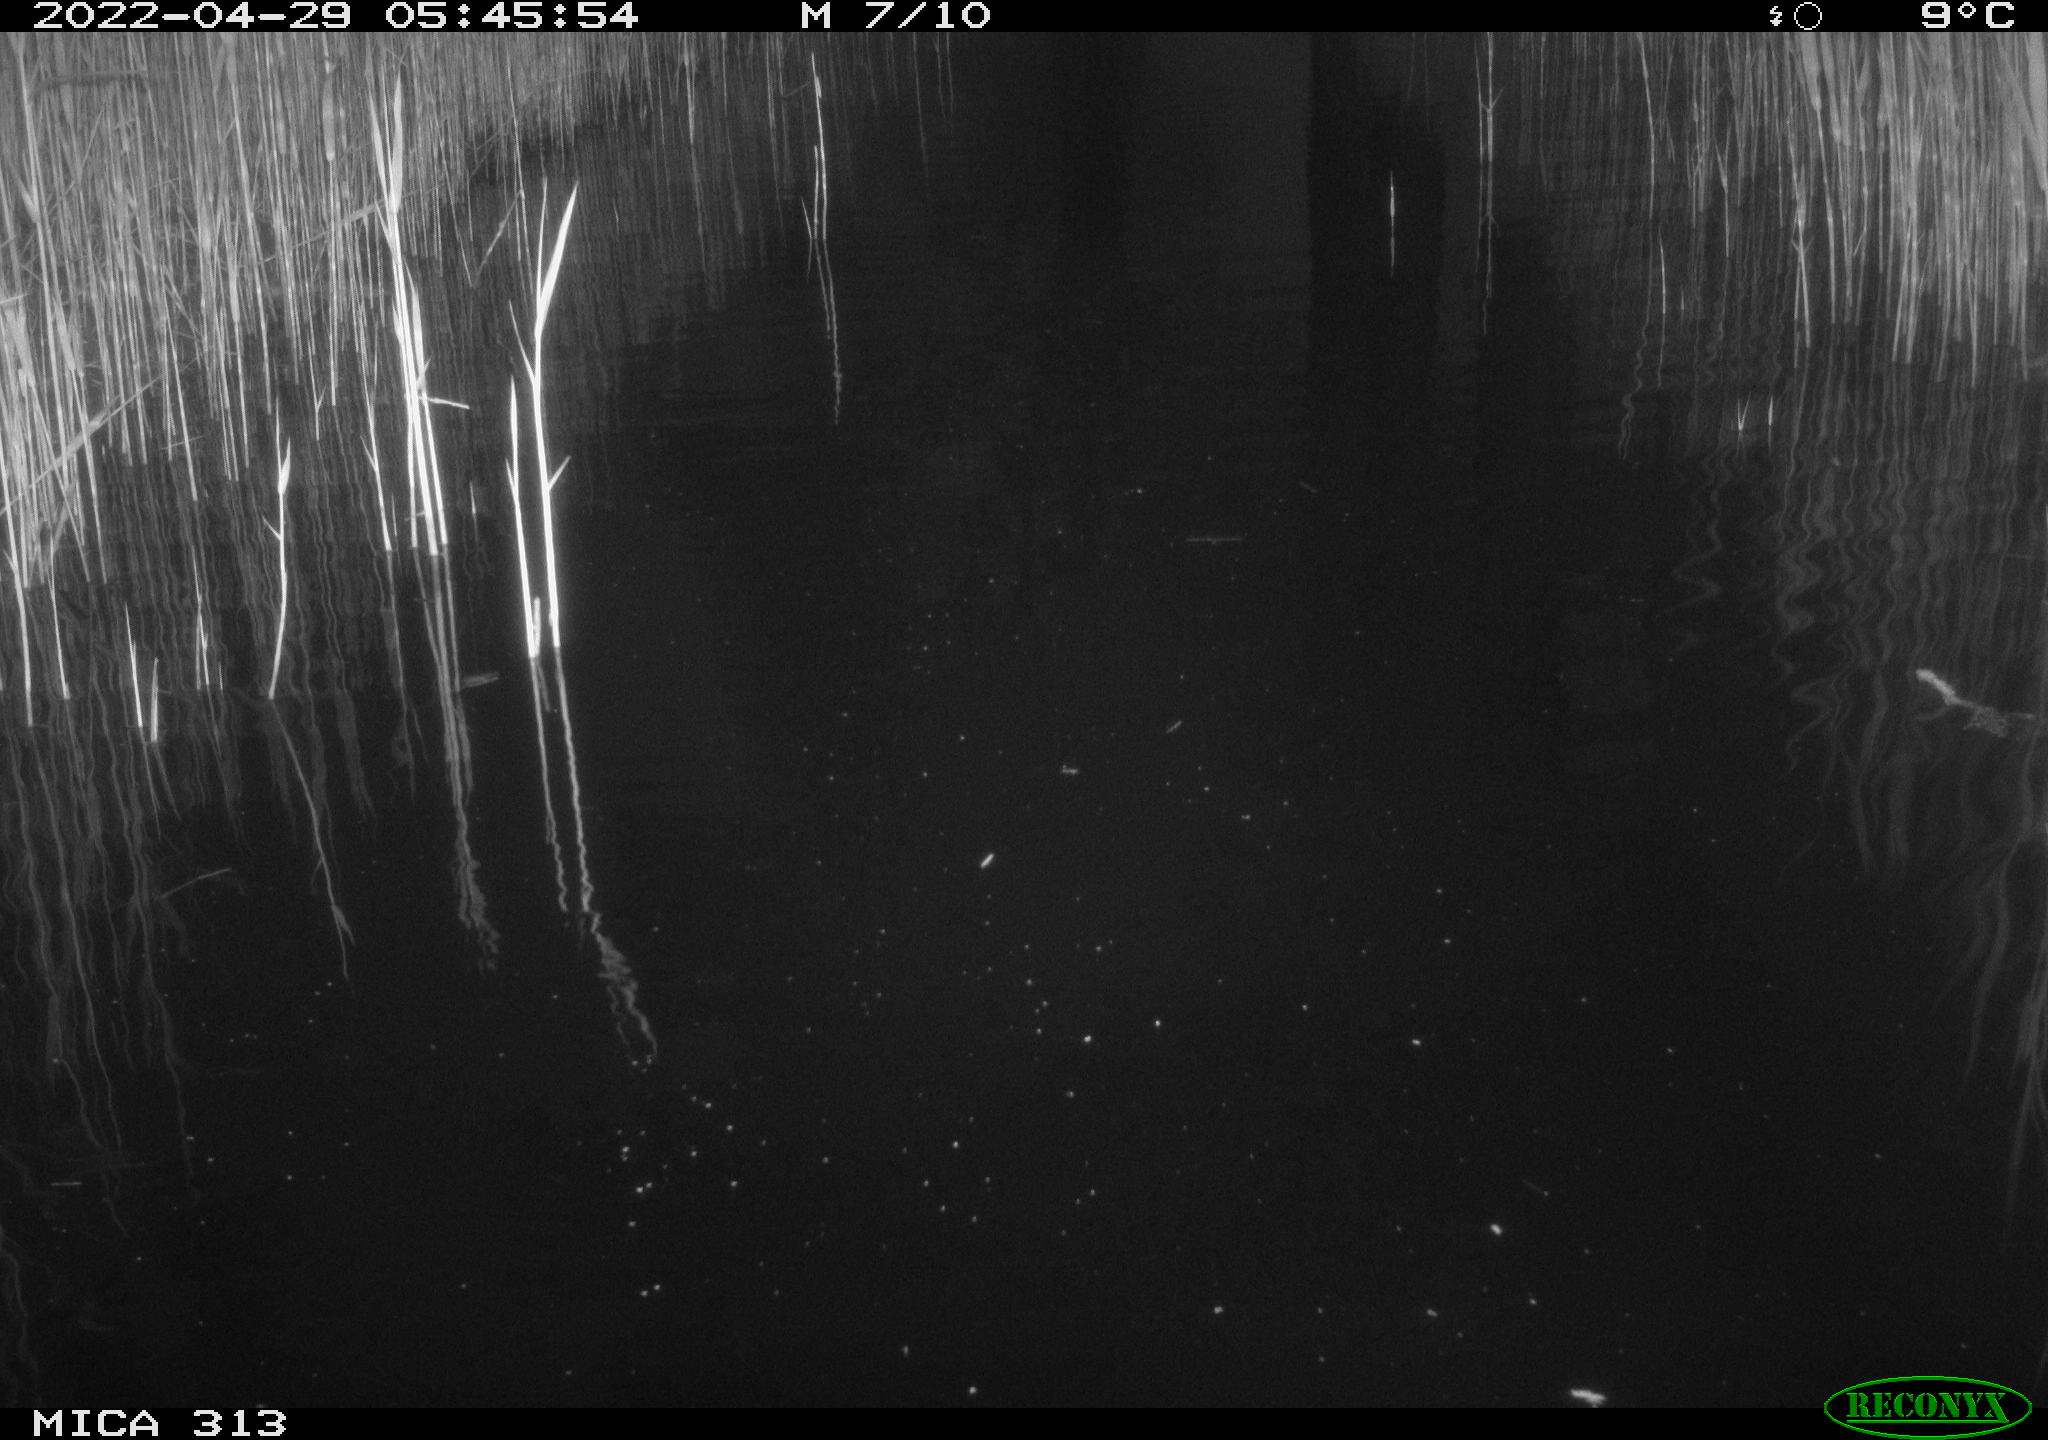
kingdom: Animalia
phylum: Chordata
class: Aves
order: Gruiformes
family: Rallidae
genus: Gallinula
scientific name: Gallinula chloropus
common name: Common moorhen
